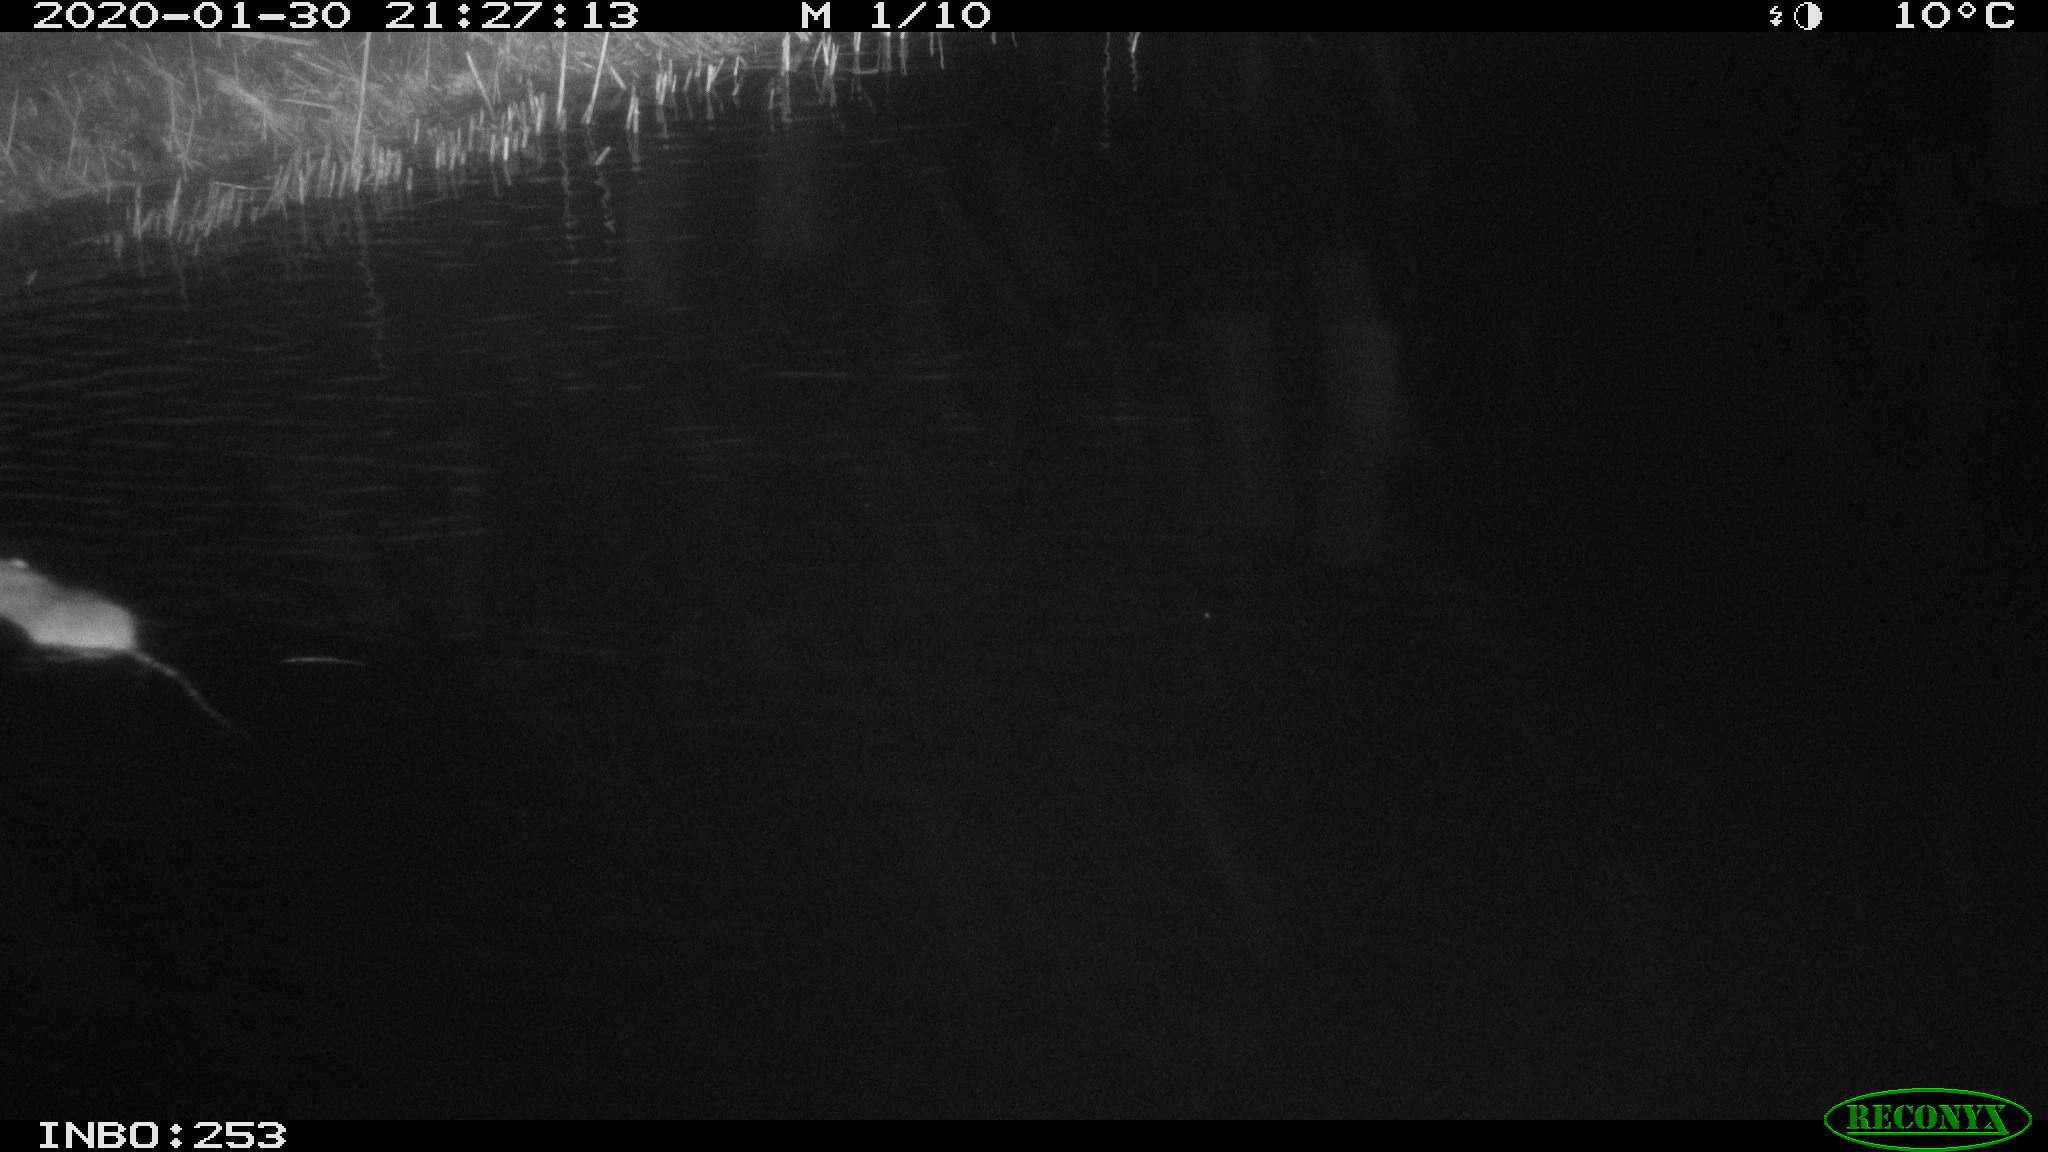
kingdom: Animalia
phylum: Chordata
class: Aves
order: Anseriformes
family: Anatidae
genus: Anas
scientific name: Anas platyrhynchos
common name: Mallard
